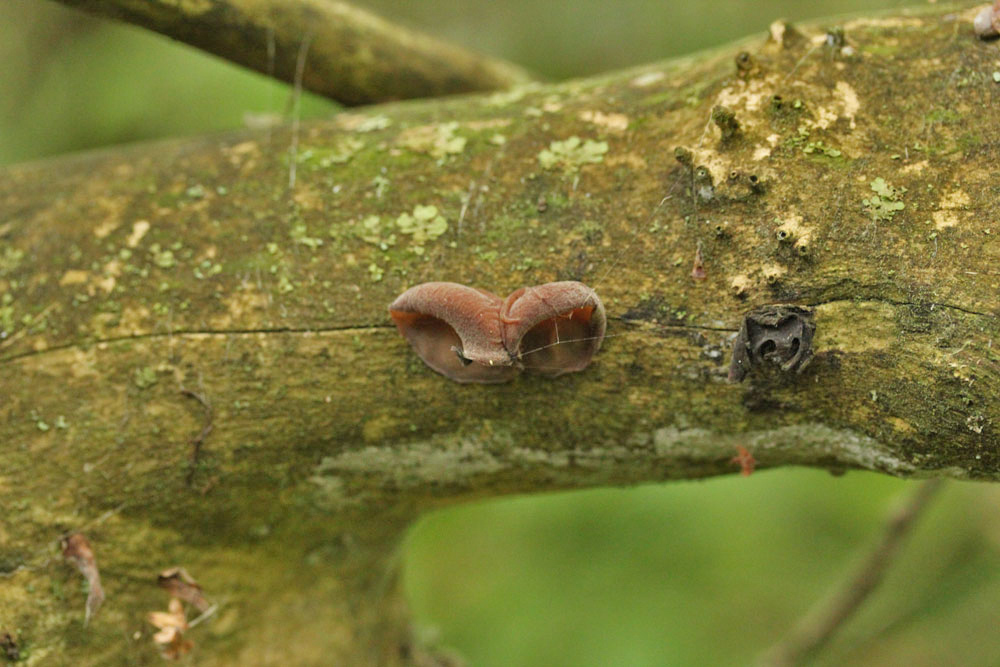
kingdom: Fungi
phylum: Basidiomycota
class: Agaricomycetes
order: Auriculariales
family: Auriculariaceae
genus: Auricularia
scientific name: Auricularia auricula-judae
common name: almindelig judasøre
